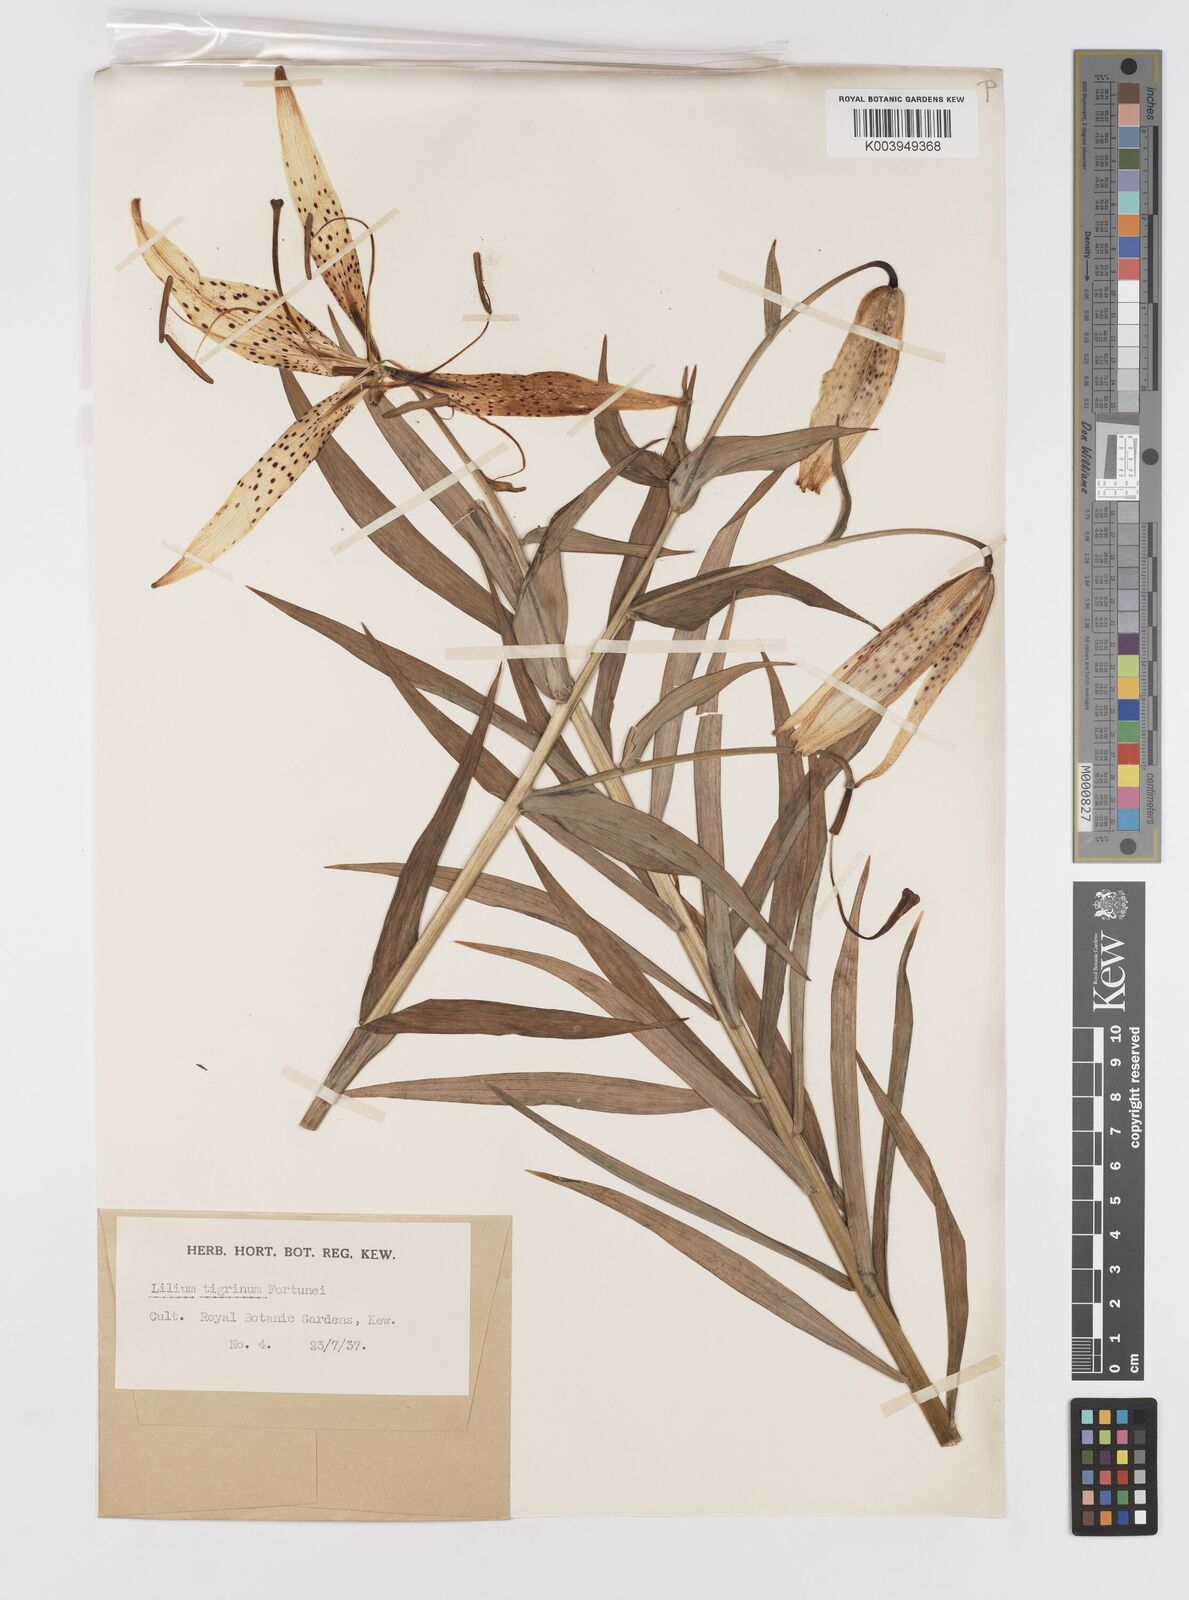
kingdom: Plantae
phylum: Tracheophyta
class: Liliopsida
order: Liliales
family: Liliaceae
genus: Lilium
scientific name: Lilium lancifolium
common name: Tiger lily
